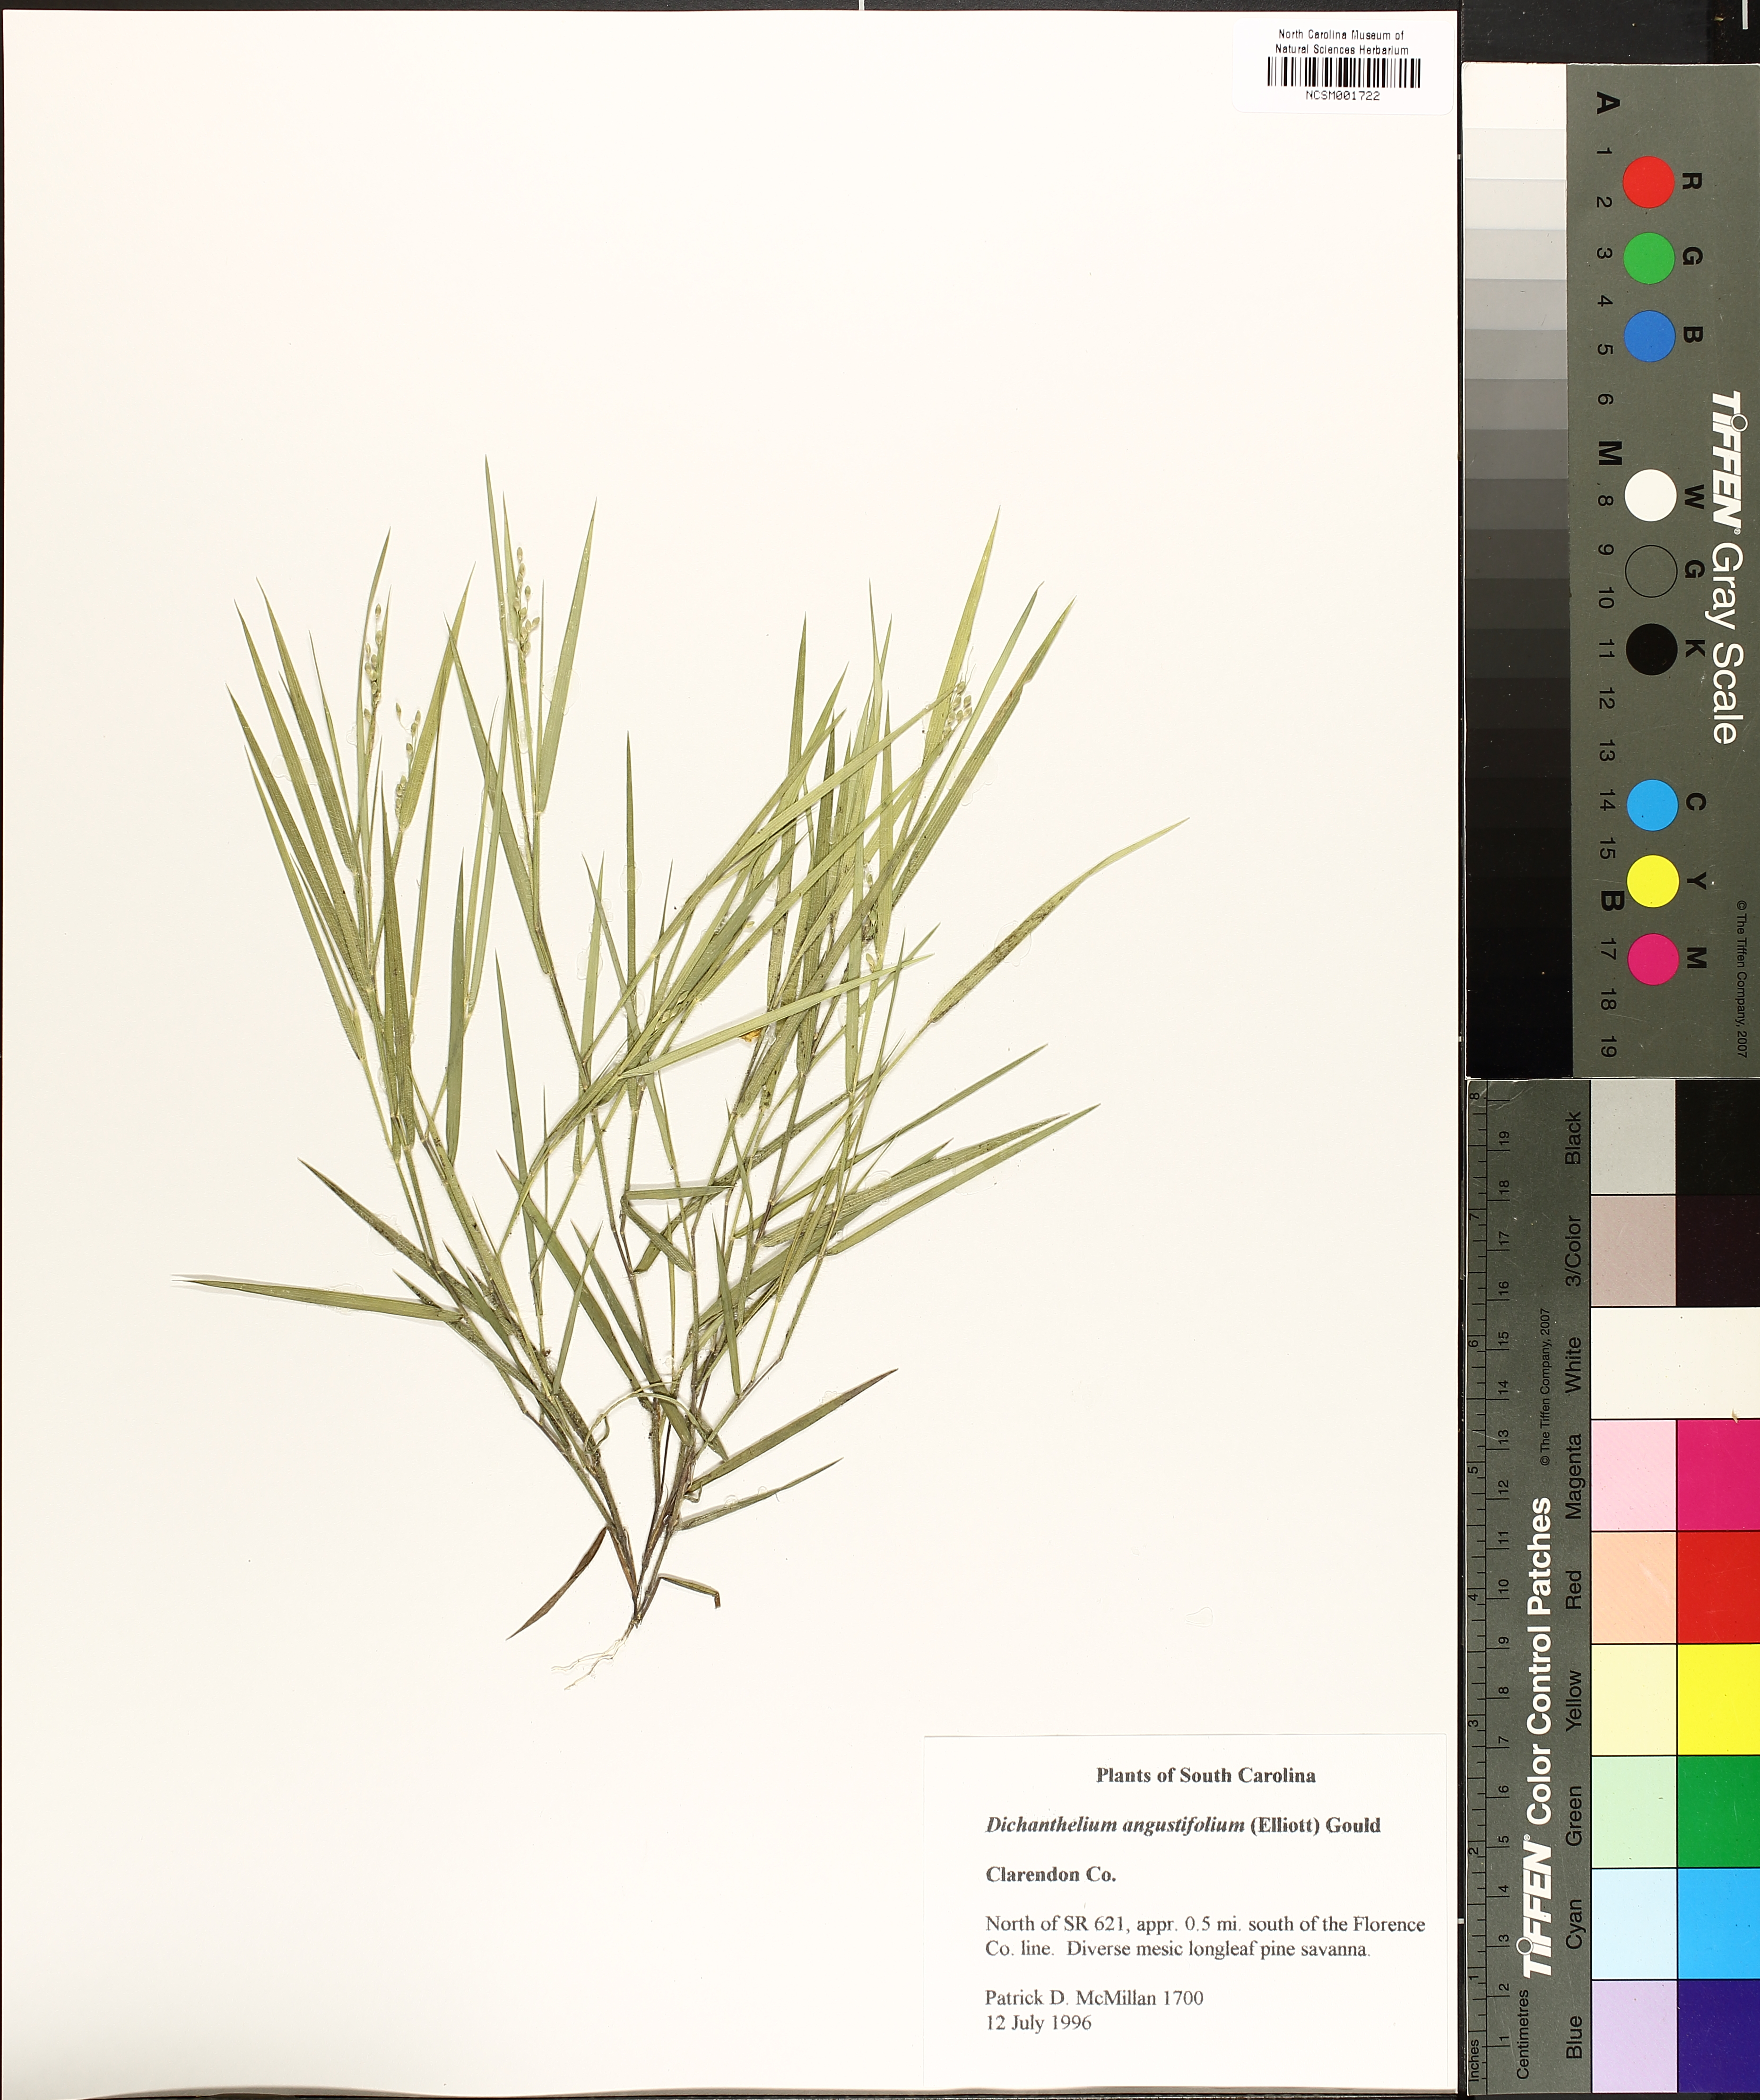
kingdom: Plantae
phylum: Tracheophyta
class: Liliopsida
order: Poales
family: Poaceae
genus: Dichanthelium
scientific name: Dichanthelium angustifolium
